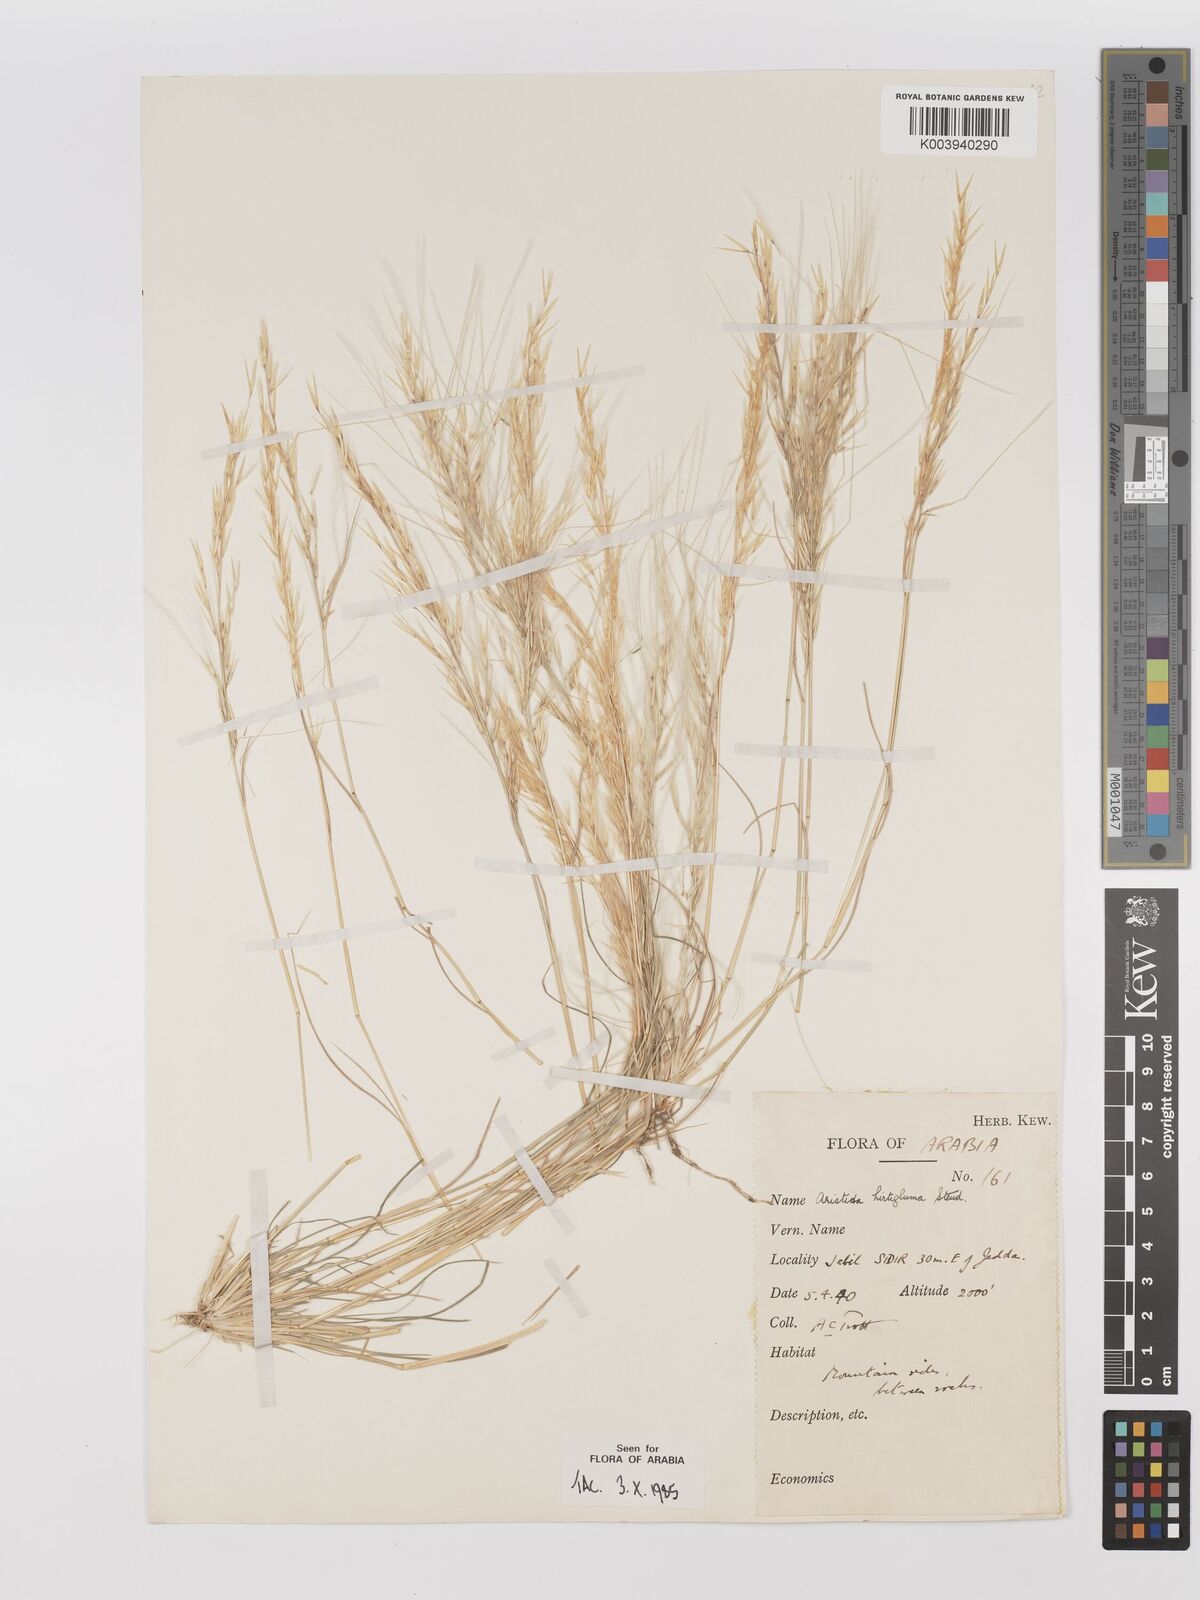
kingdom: Plantae
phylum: Tracheophyta
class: Liliopsida
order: Poales
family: Poaceae
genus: Stipagrostis
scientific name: Stipagrostis hirtigluma
